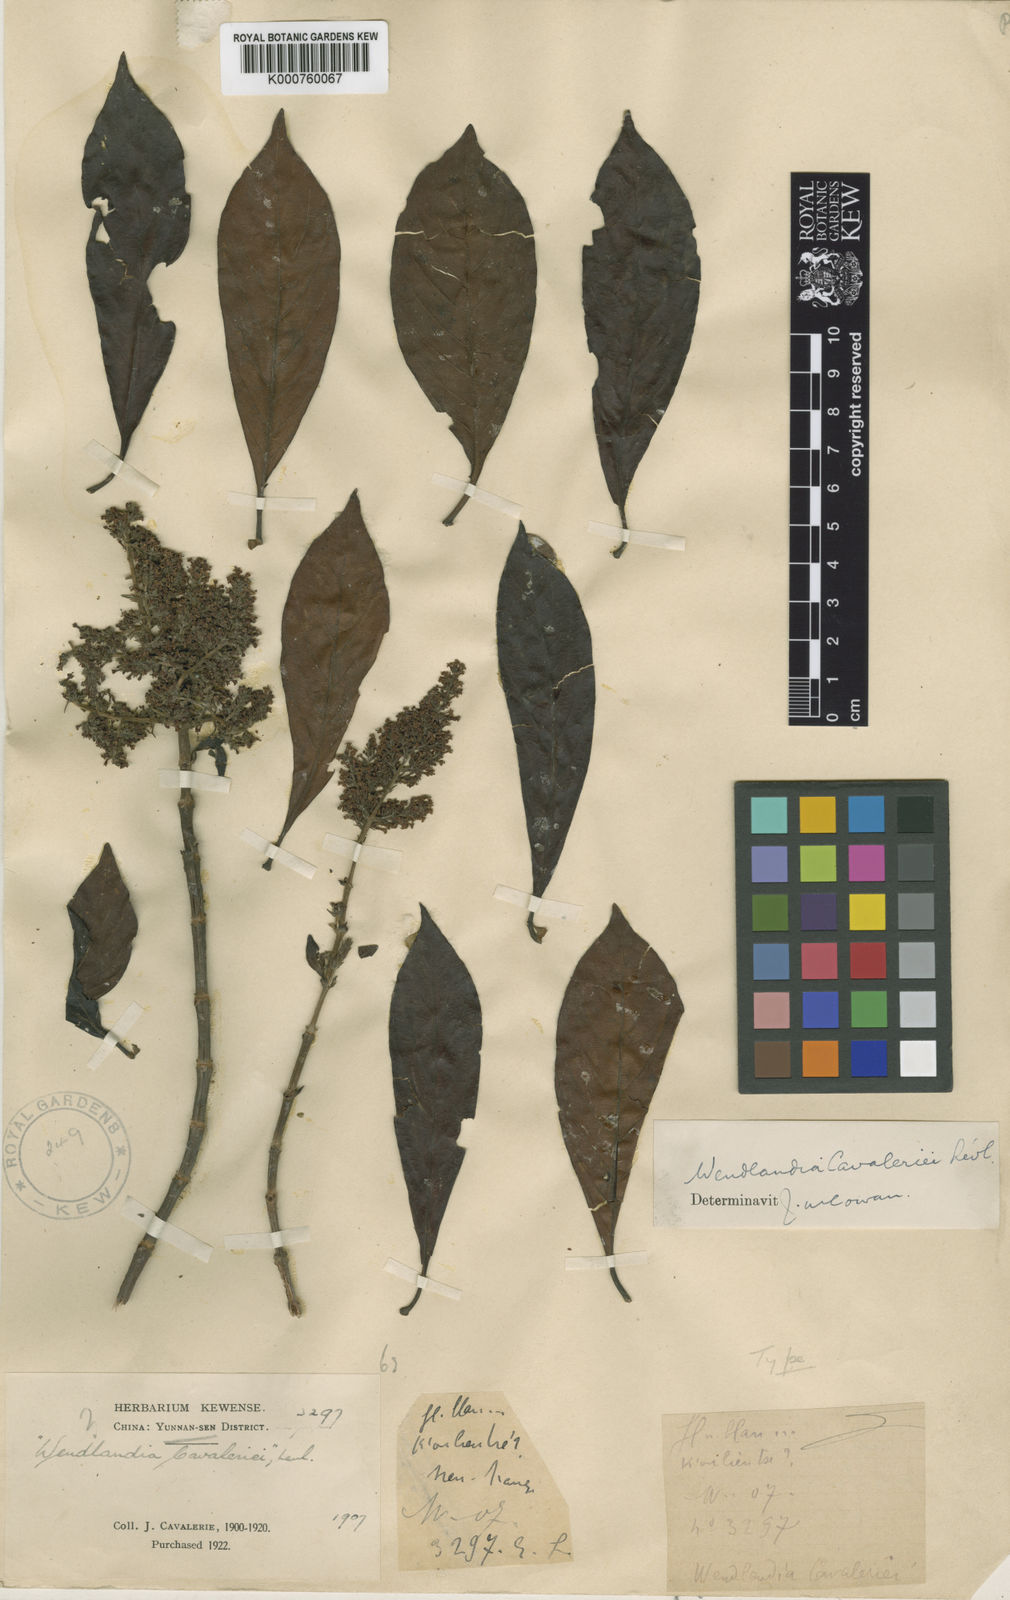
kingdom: Plantae
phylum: Tracheophyta
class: Magnoliopsida
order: Gentianales
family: Rubiaceae
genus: Wendlandia
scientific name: Wendlandia
